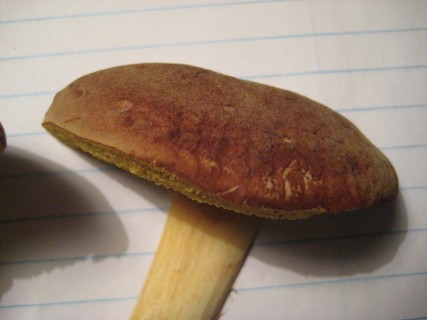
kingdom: Fungi
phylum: Basidiomycota
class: Agaricomycetes
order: Boletales
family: Boletaceae
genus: Xerocomus
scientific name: Xerocomus ferrugineus
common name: vaskeskinds-rørhat
